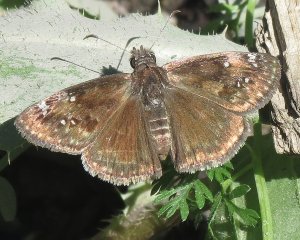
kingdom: Animalia
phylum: Arthropoda
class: Insecta
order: Lepidoptera
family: Hesperiidae
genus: Gesta
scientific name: Gesta
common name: Wild Indigo Duskywing
